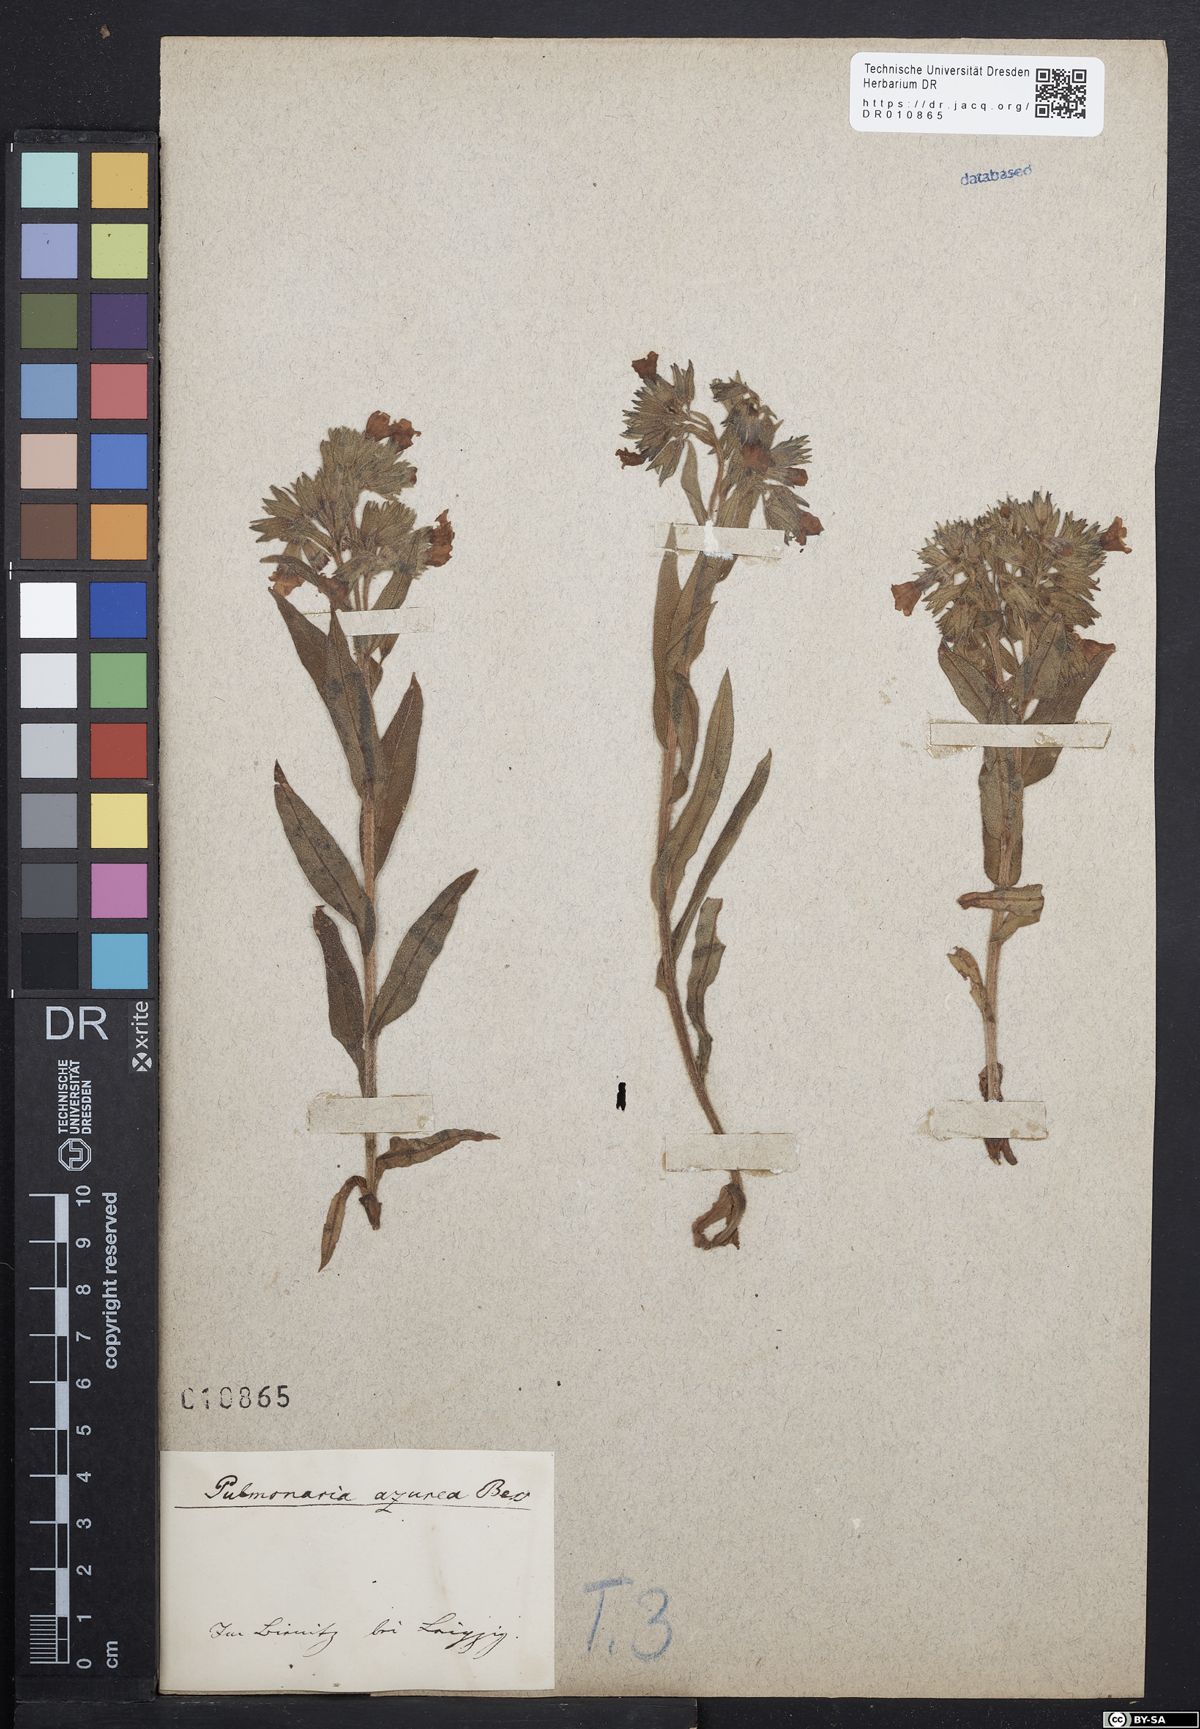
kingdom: Plantae
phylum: Tracheophyta
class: Magnoliopsida
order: Boraginales
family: Boraginaceae
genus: Pulmonaria
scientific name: Pulmonaria angustifolia
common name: Blue cowslip
